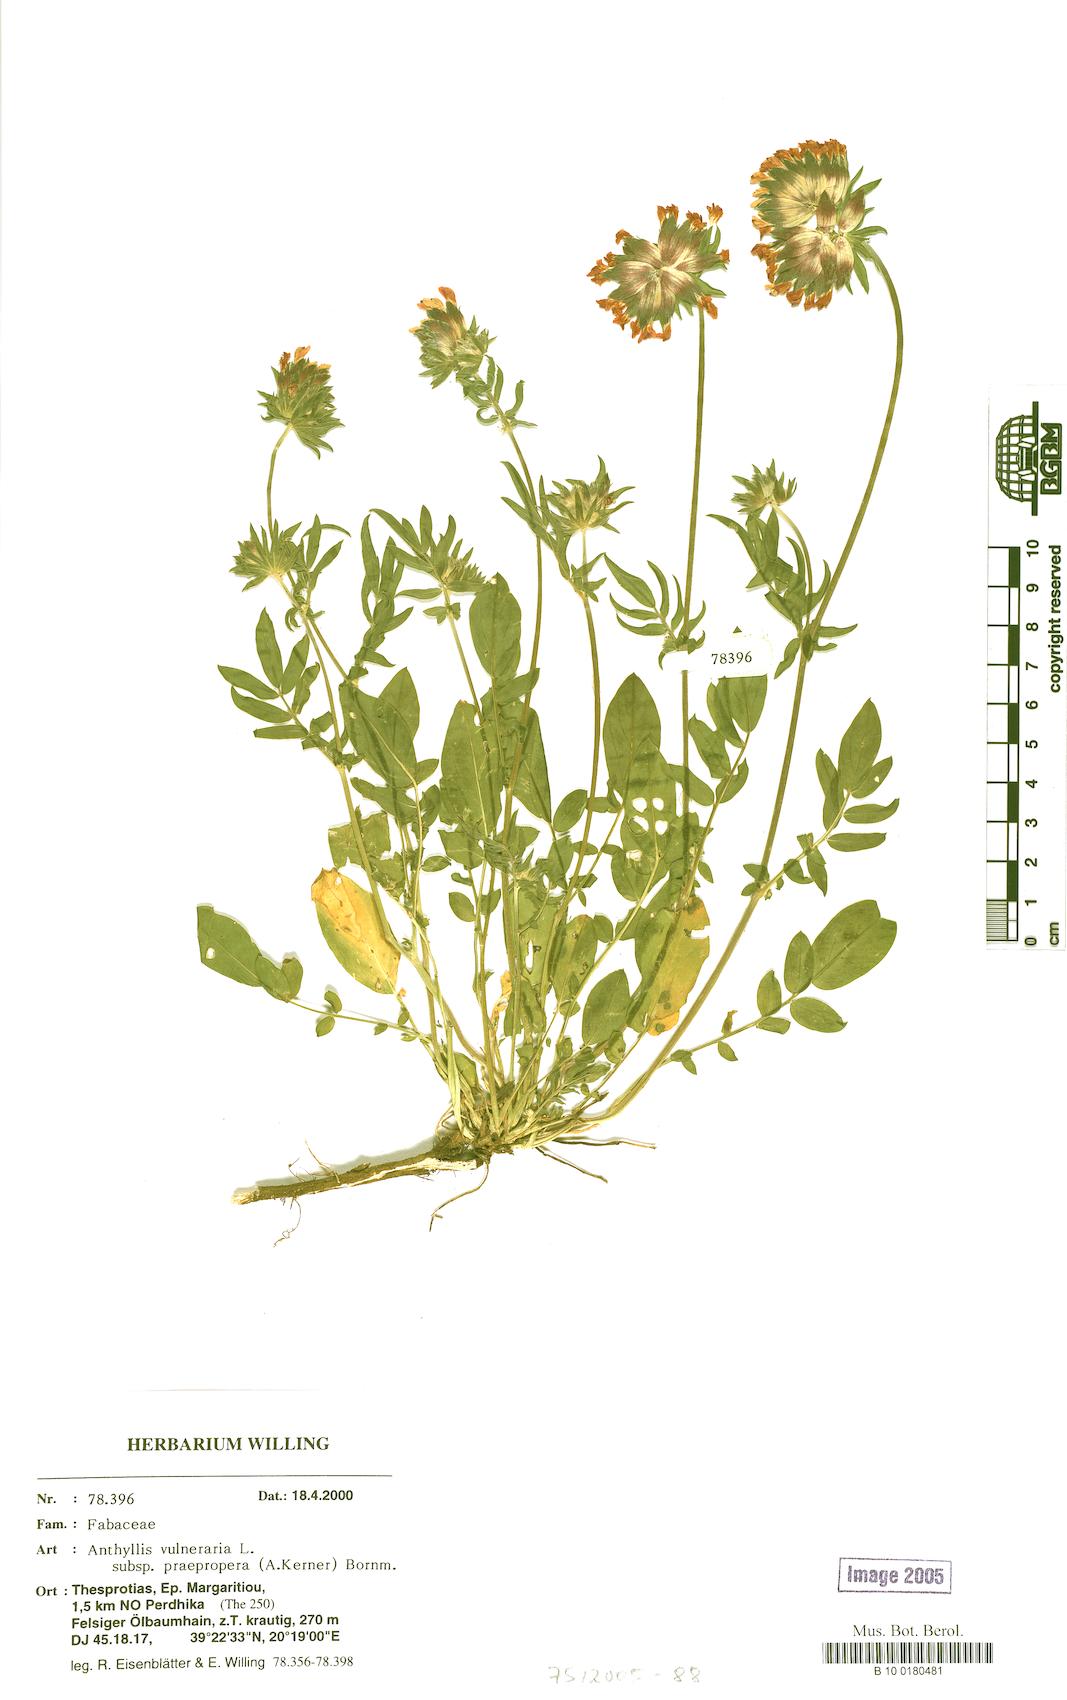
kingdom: Plantae
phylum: Tracheophyta
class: Magnoliopsida
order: Fabales
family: Fabaceae
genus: Anthyllis
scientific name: Anthyllis vulneraria
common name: Kidney vetch
